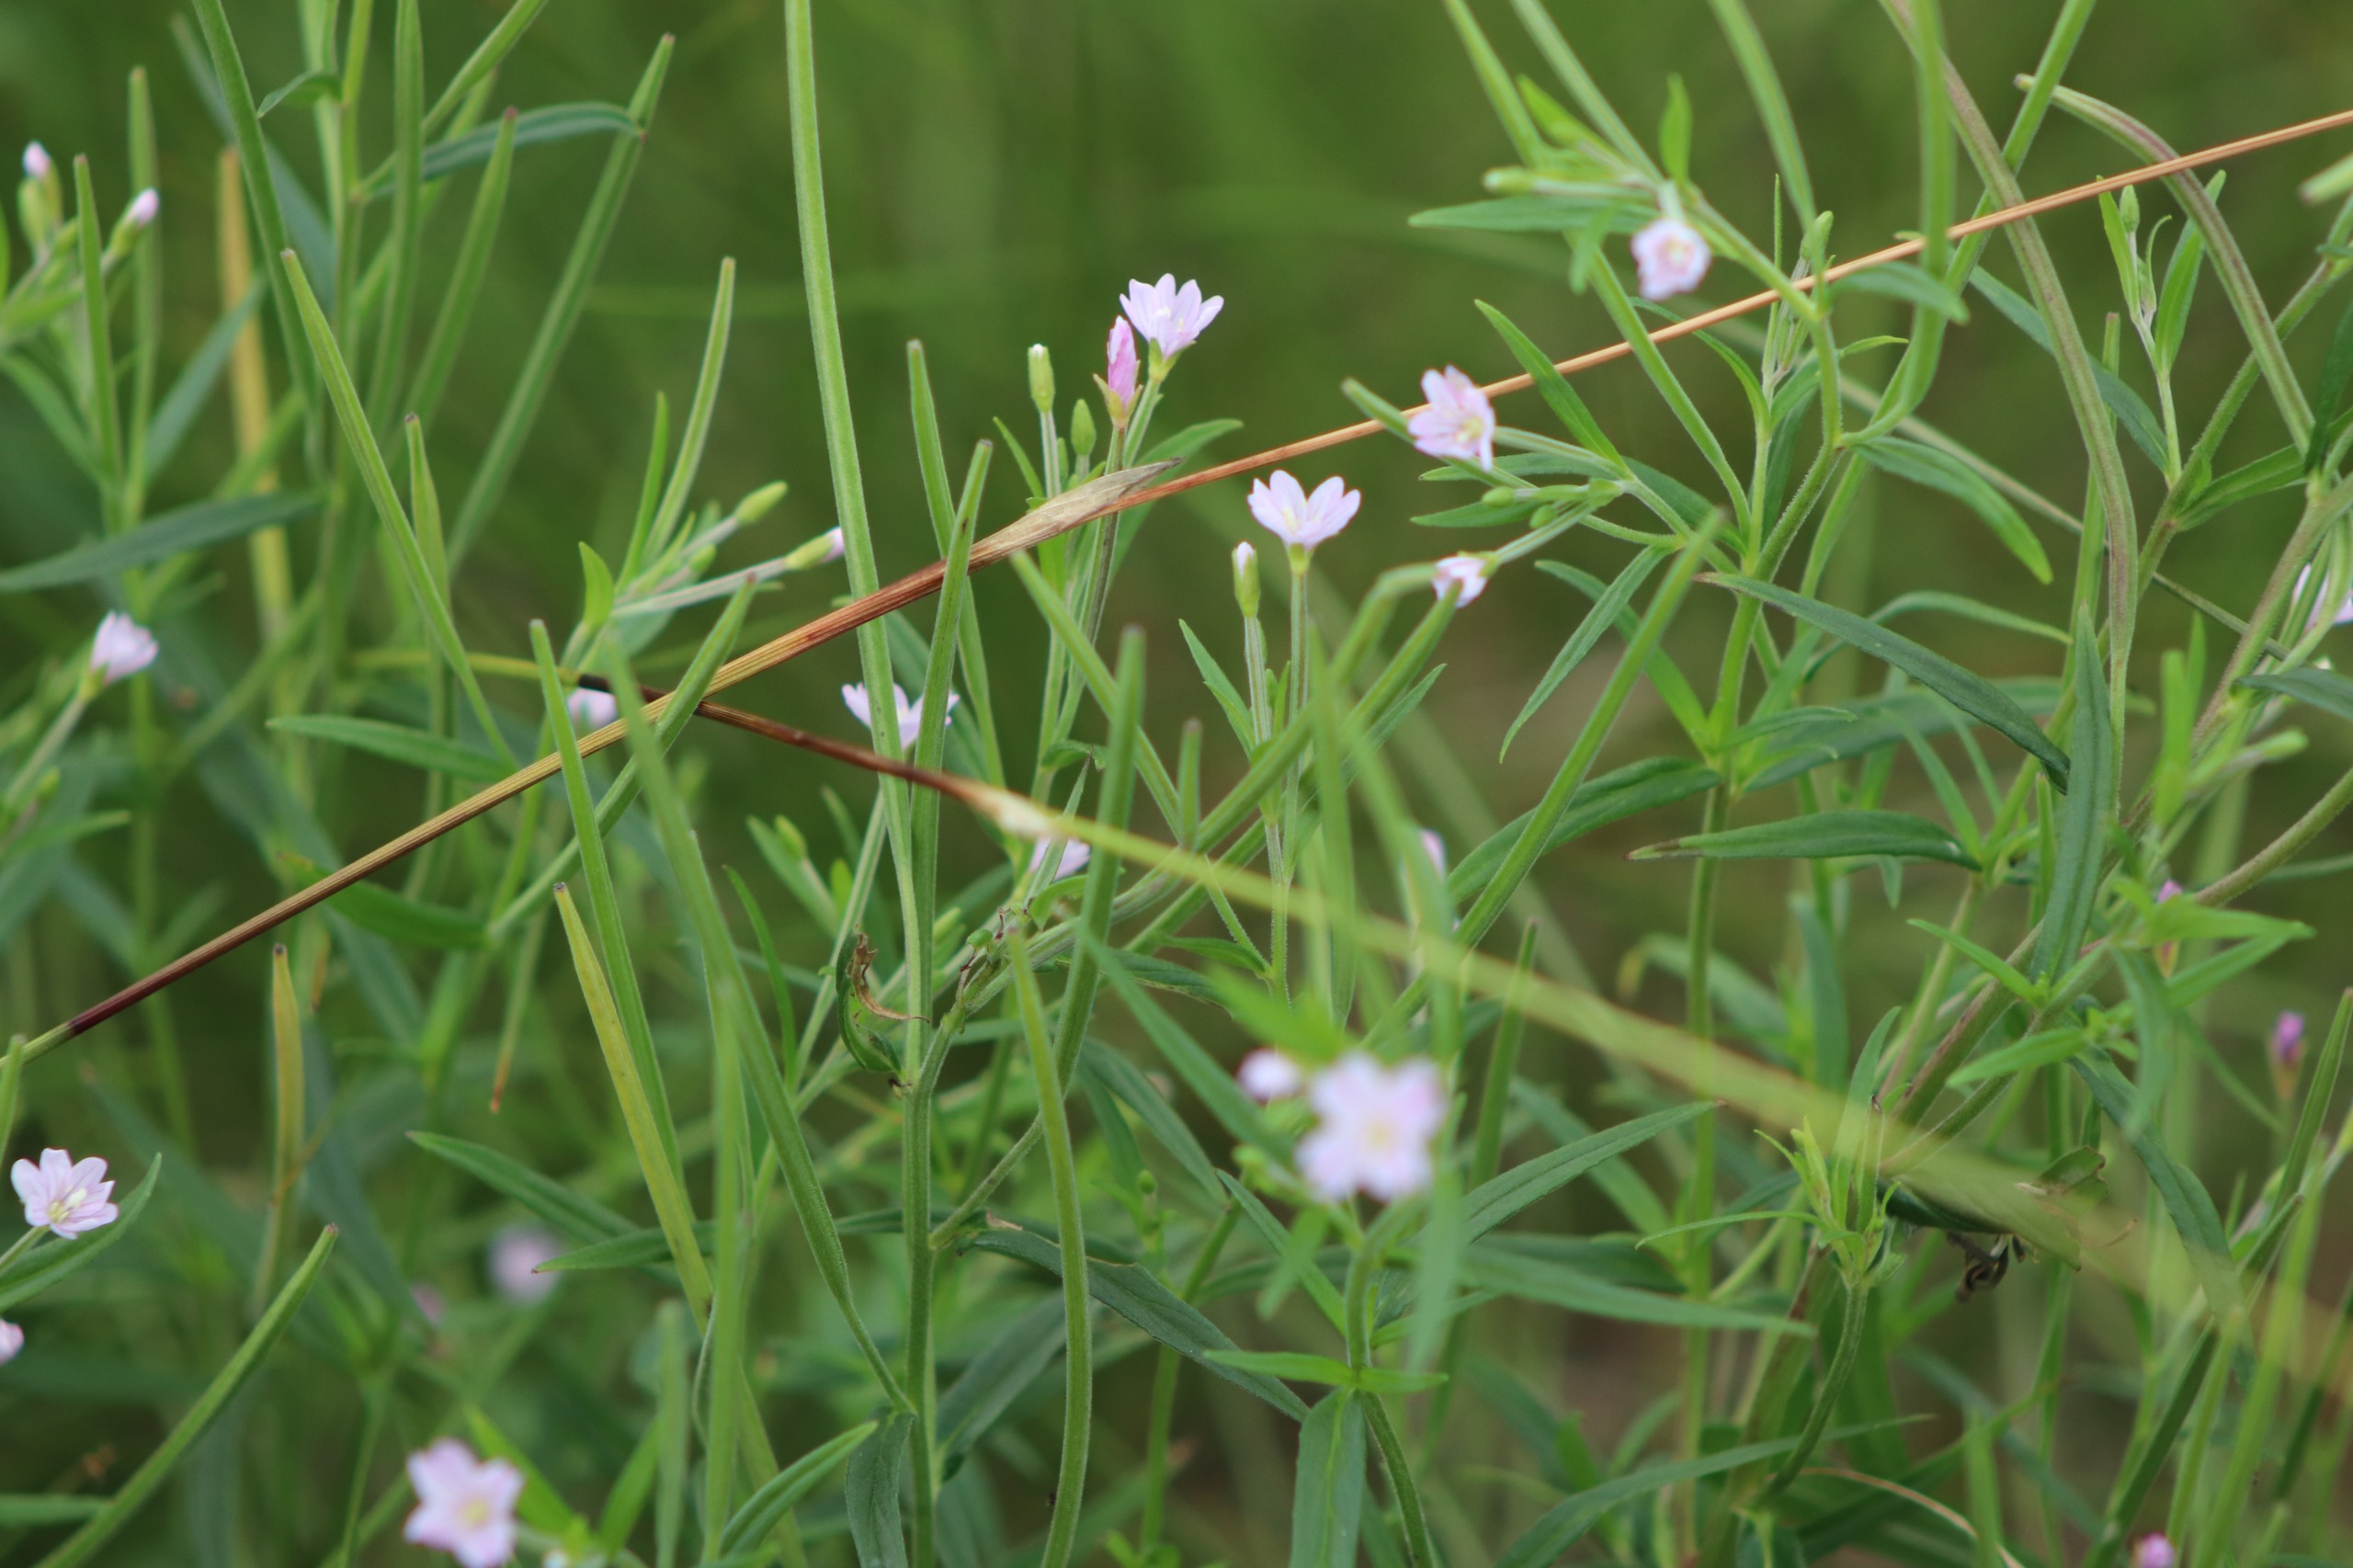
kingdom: Plantae
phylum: Tracheophyta
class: Magnoliopsida
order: Myrtales
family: Onagraceae
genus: Epilobium
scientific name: Epilobium palustre
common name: Kær-dueurt
